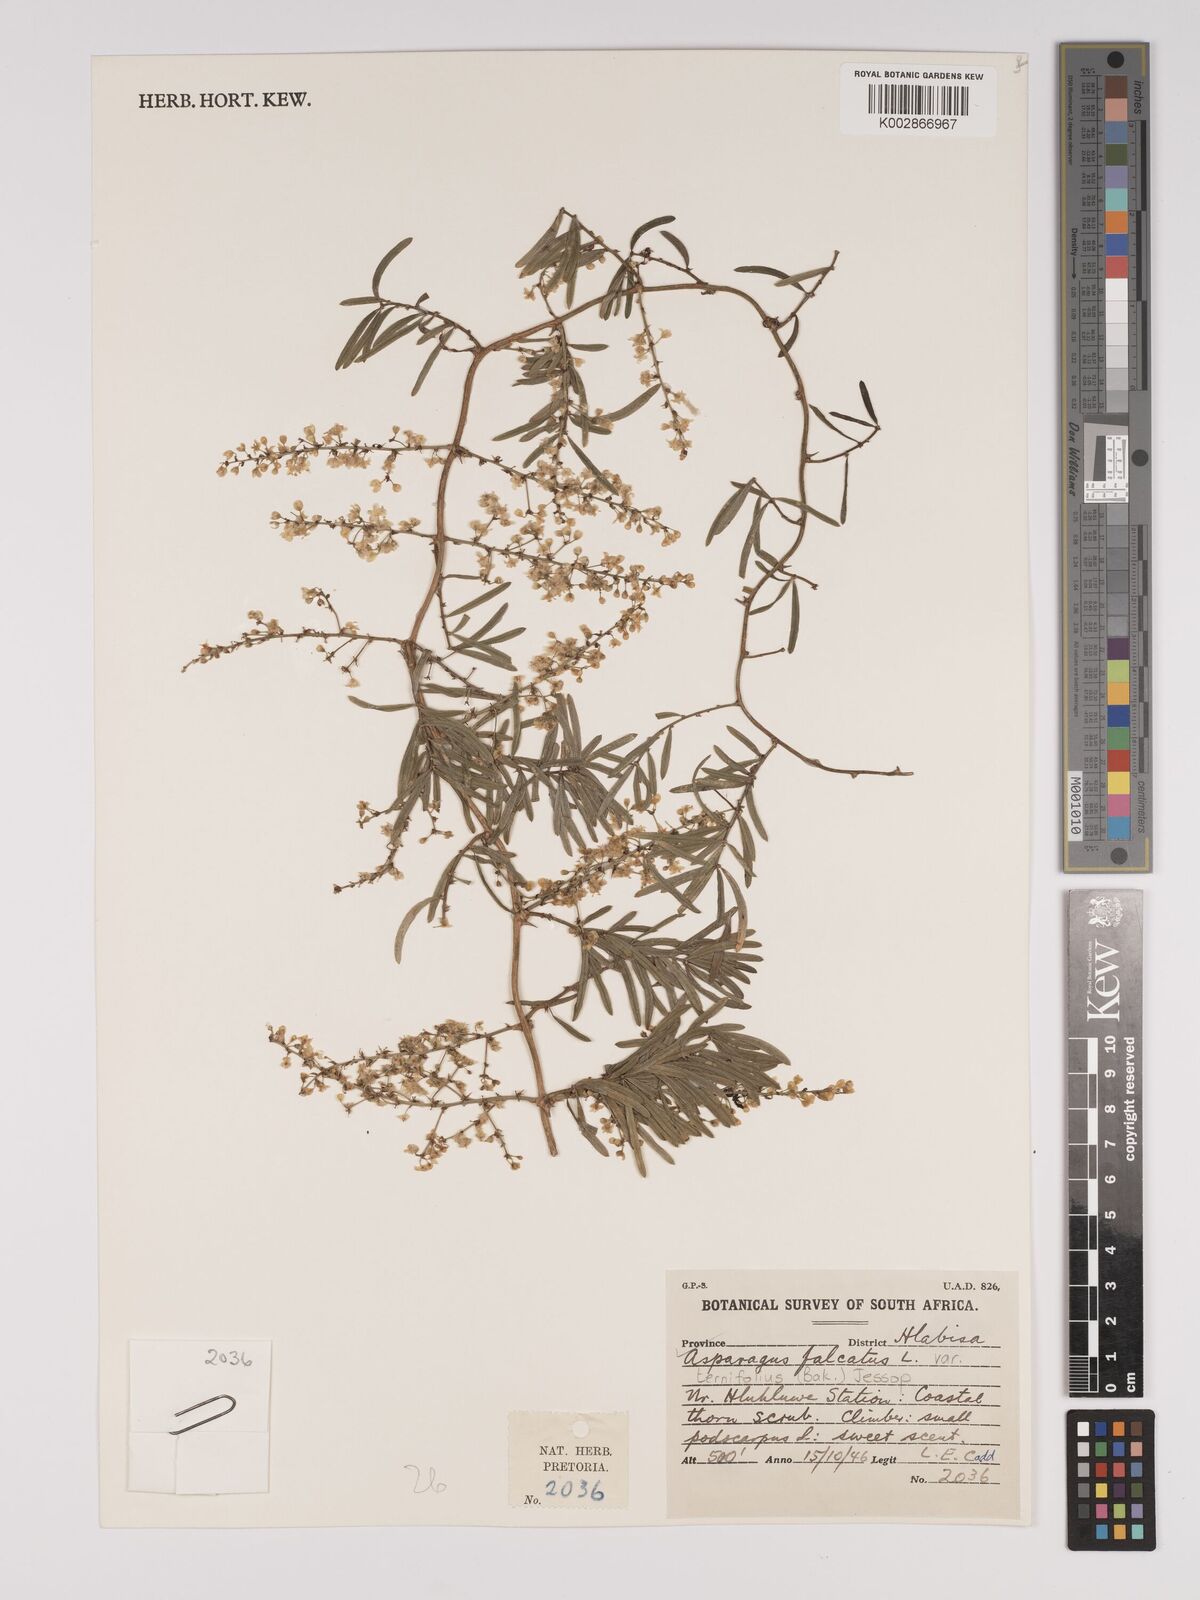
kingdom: Plantae
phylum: Tracheophyta
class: Liliopsida
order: Asparagales
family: Asparagaceae
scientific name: Asparagaceae
